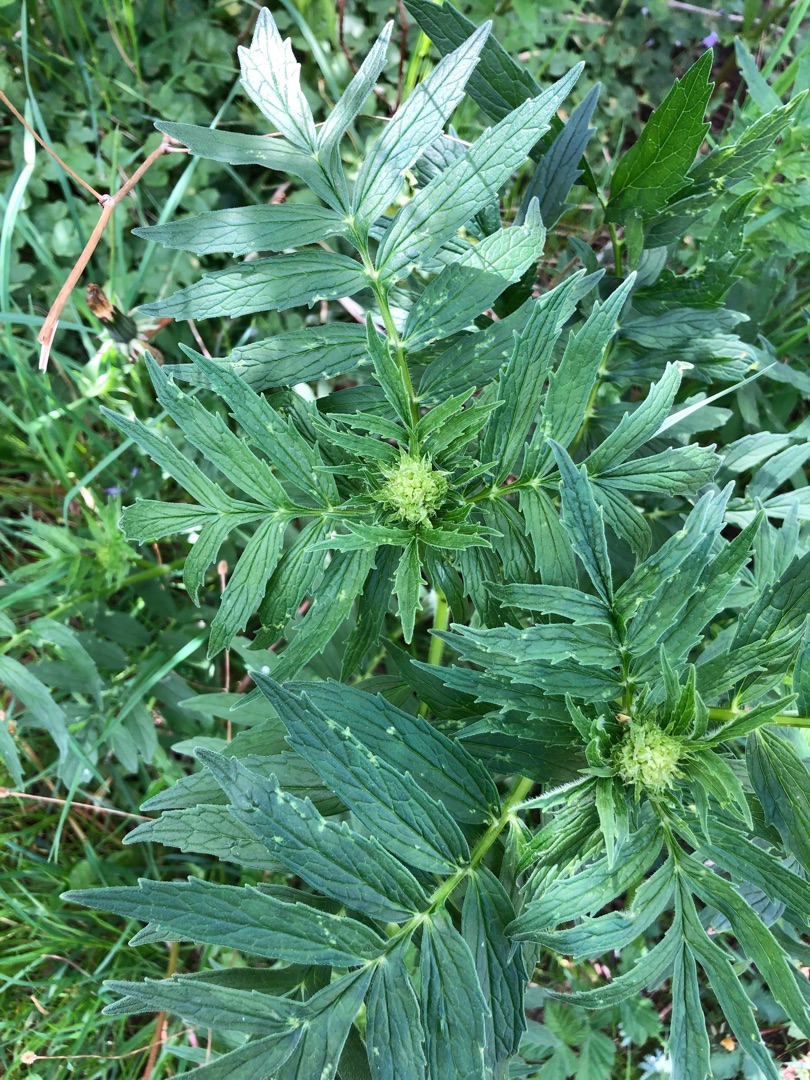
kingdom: Plantae
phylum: Tracheophyta
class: Magnoliopsida
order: Dipsacales
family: Caprifoliaceae
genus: Valeriana
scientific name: Valeriana
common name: Baldrianslægten
